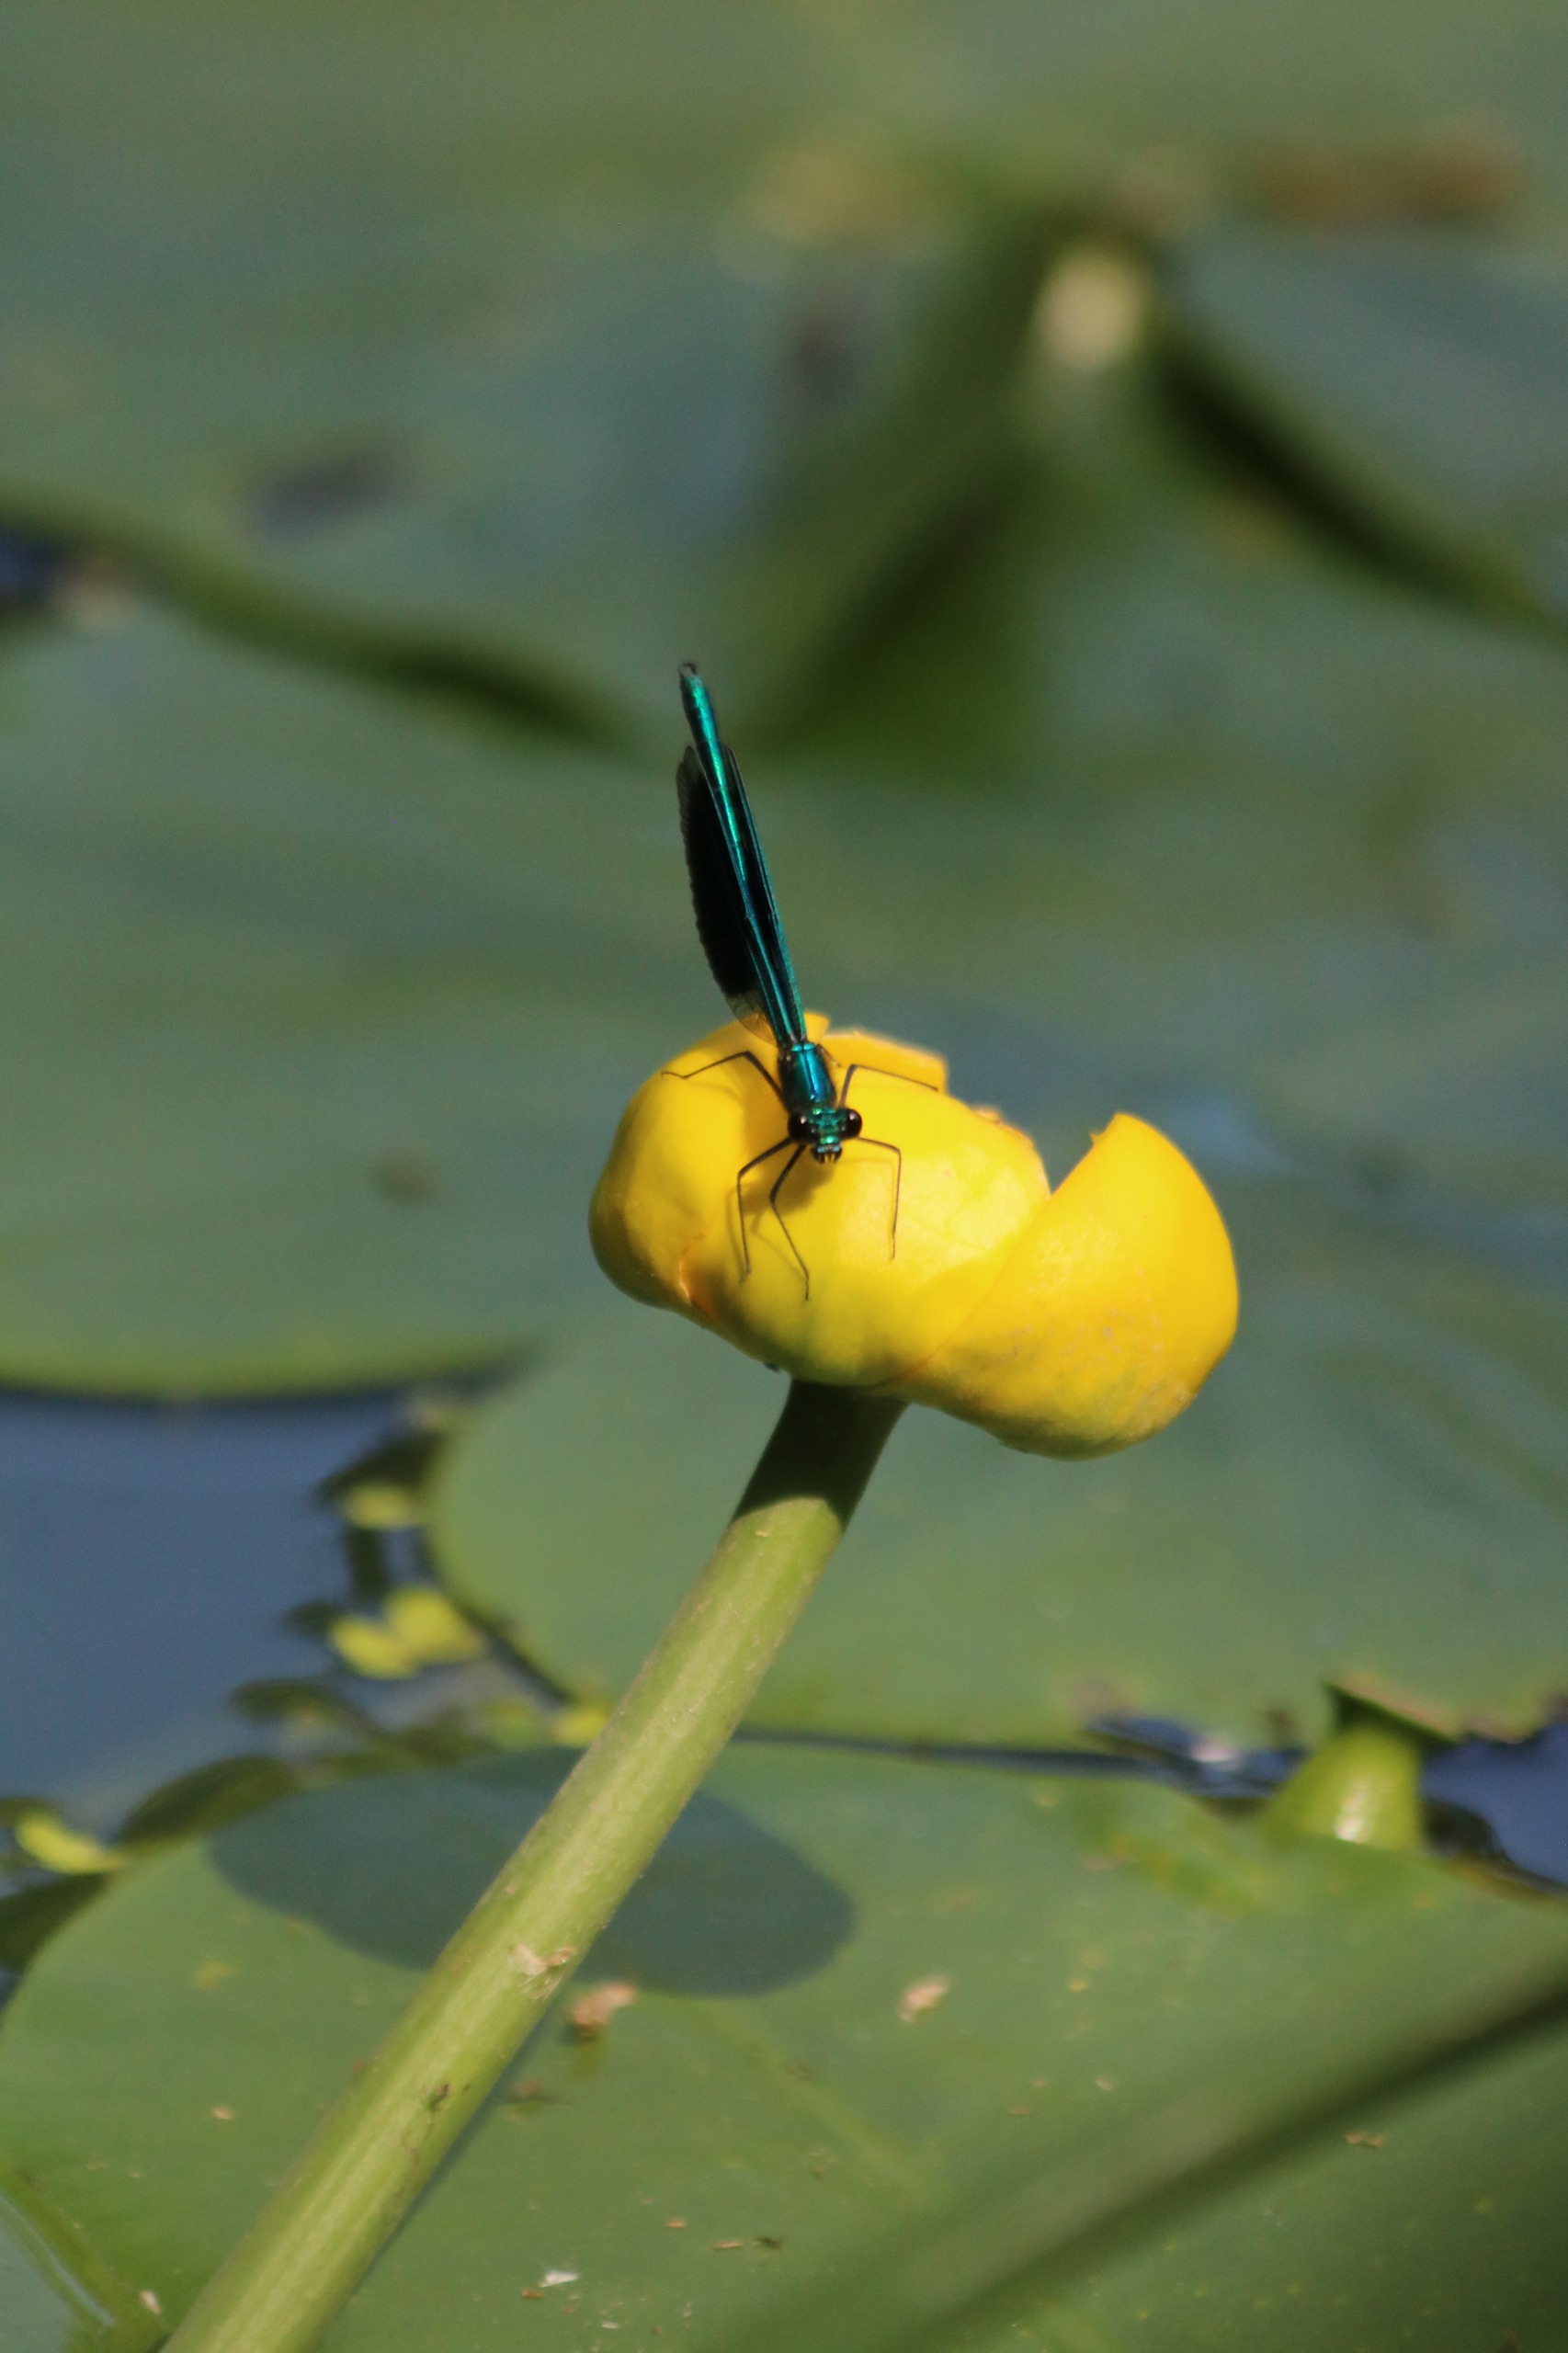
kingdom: Plantae
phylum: Tracheophyta
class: Magnoliopsida
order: Nymphaeales
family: Nymphaeaceae
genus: Nuphar
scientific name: Nuphar lutea
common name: Gul åkande
